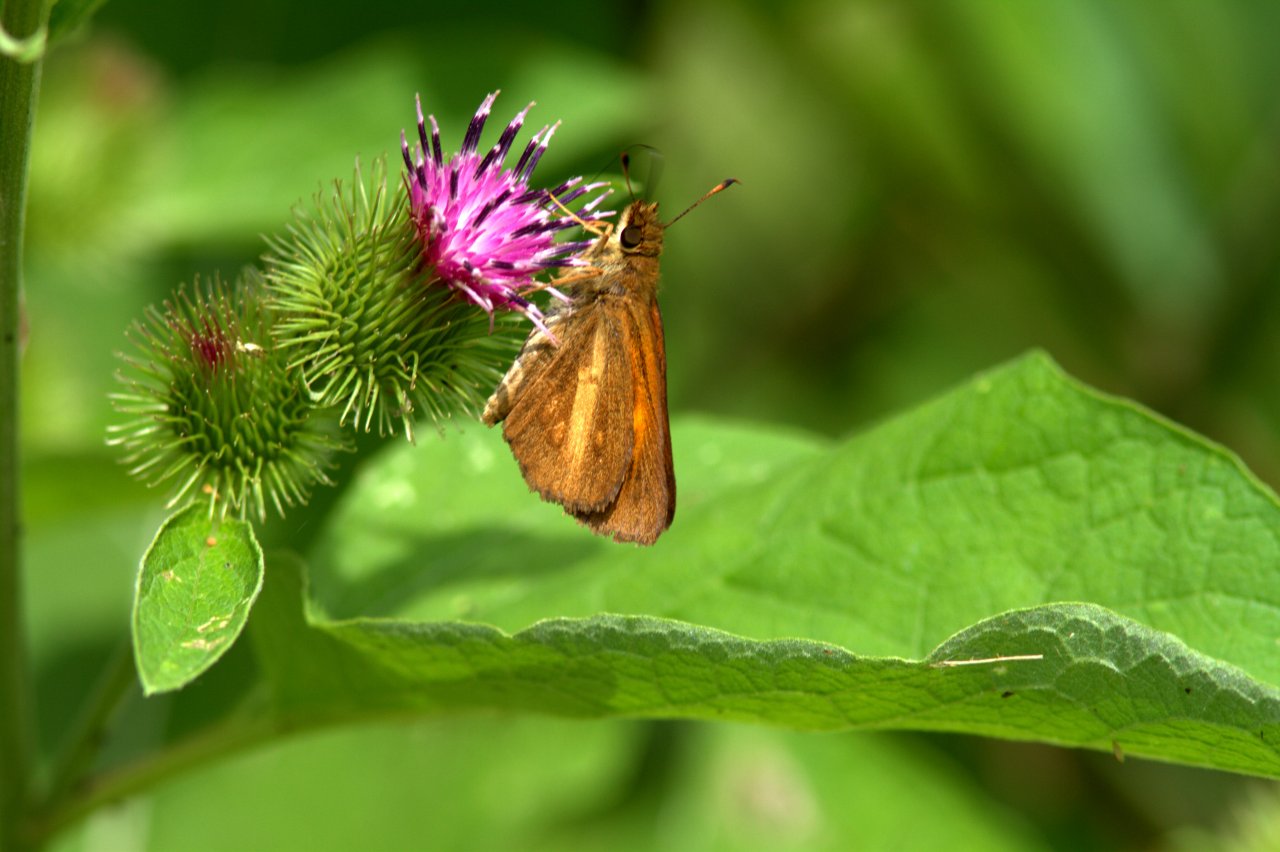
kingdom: Animalia
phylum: Arthropoda
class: Insecta
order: Lepidoptera
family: Hesperiidae
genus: Poanes
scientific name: Poanes viator
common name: Broad-winged Skipper
